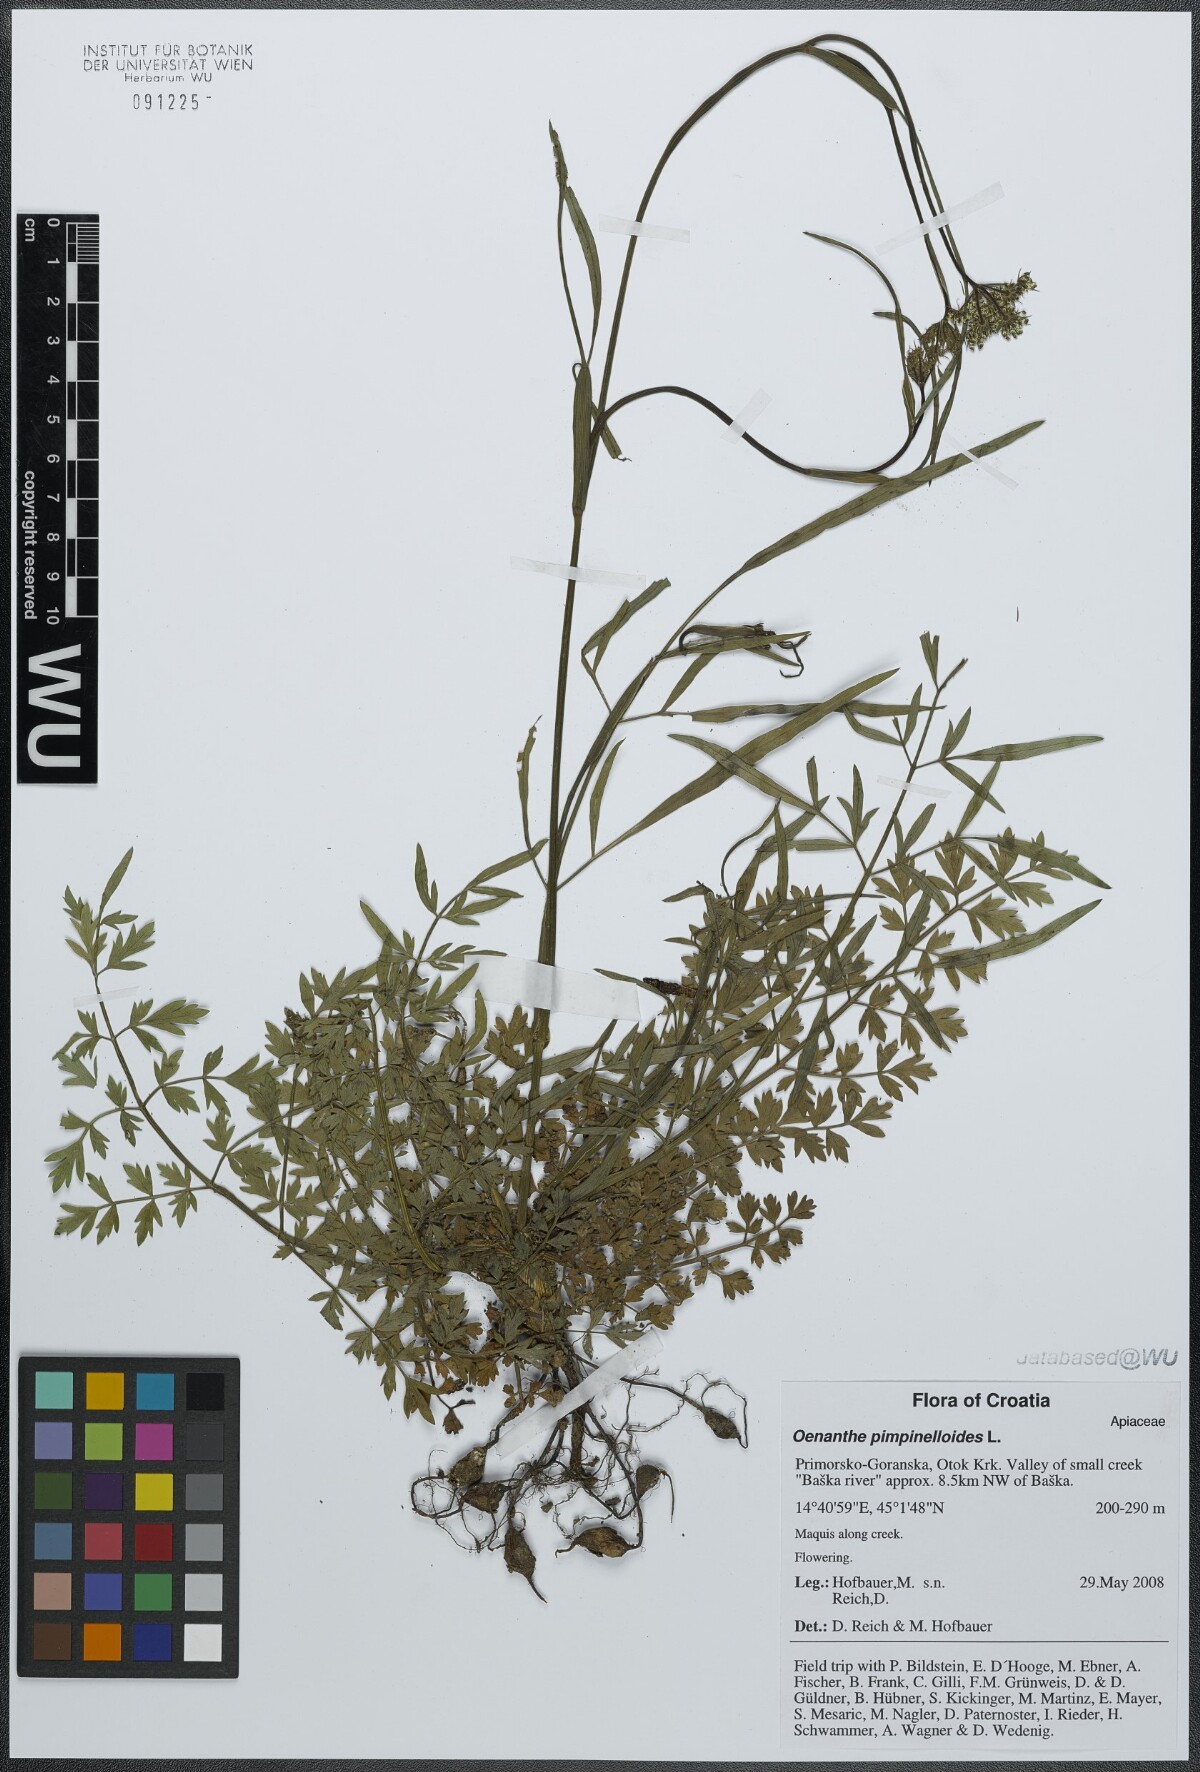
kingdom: Plantae
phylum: Tracheophyta
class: Magnoliopsida
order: Apiales
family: Apiaceae
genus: Oenanthe
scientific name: Oenanthe pimpinelloides
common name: Corky-fruited water-dropwort
